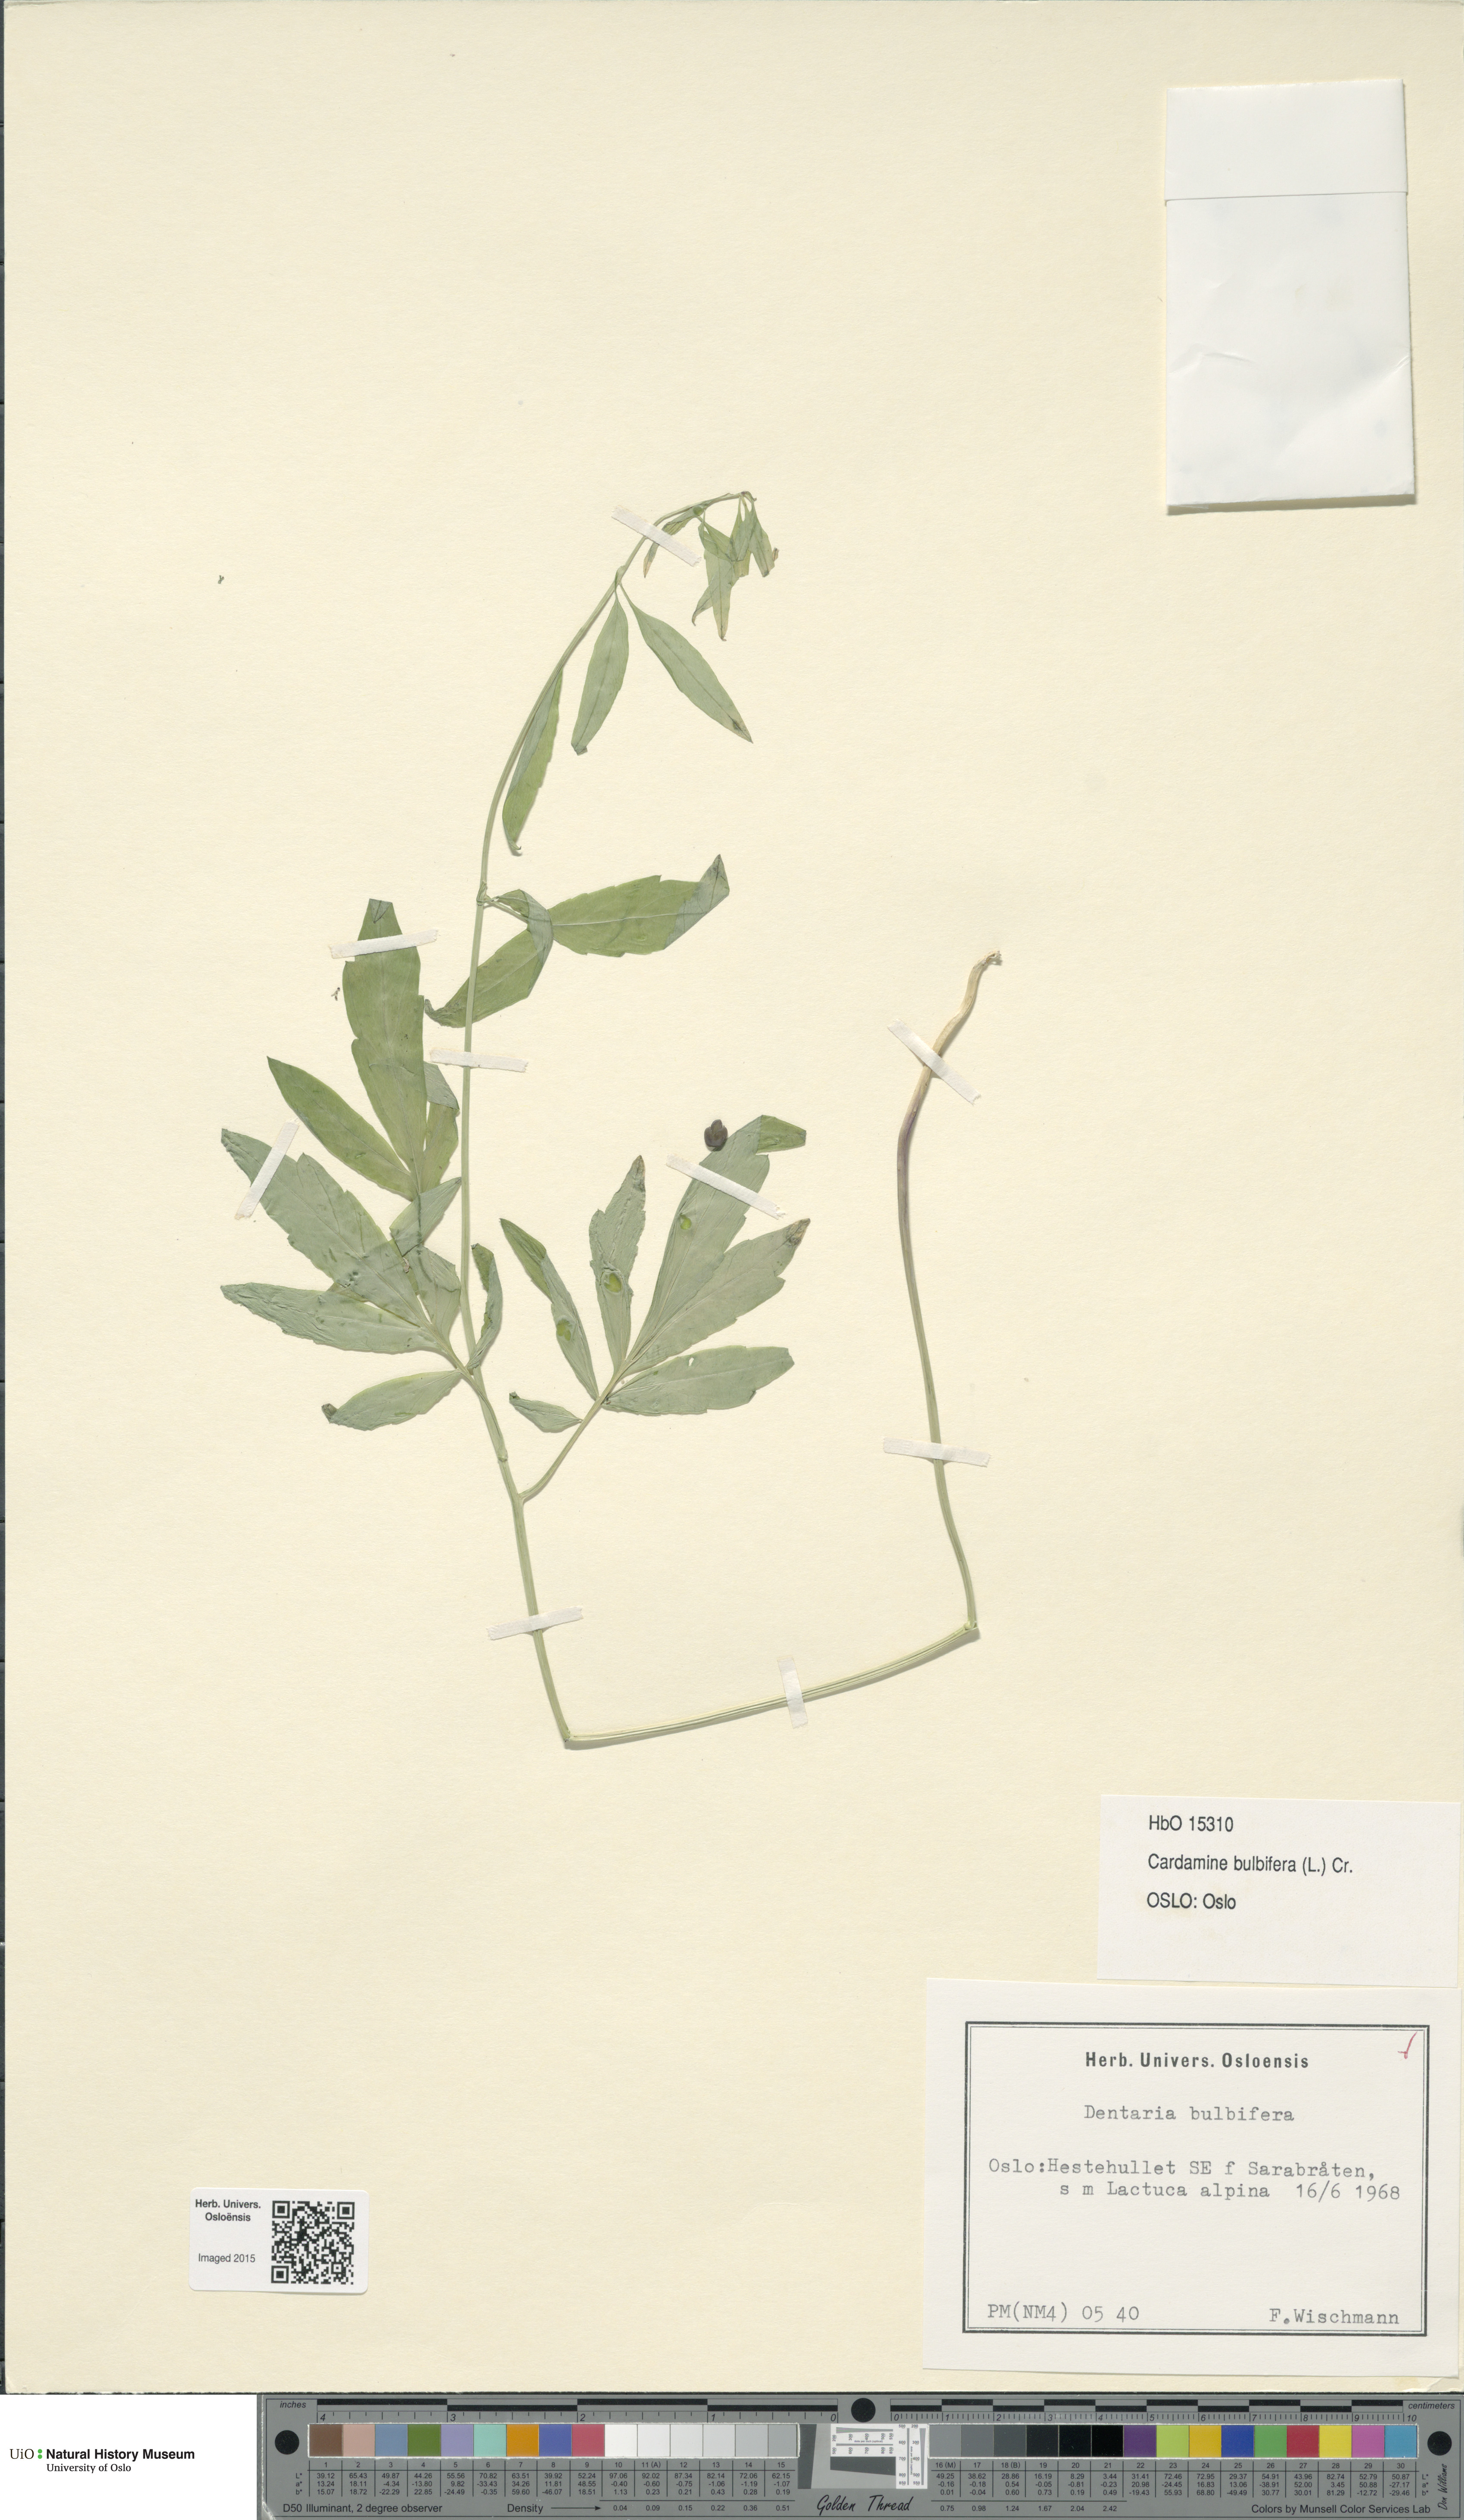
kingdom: Plantae
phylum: Tracheophyta
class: Magnoliopsida
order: Brassicales
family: Brassicaceae
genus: Cardamine
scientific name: Cardamine bulbifera
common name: Coralroot bittercress
